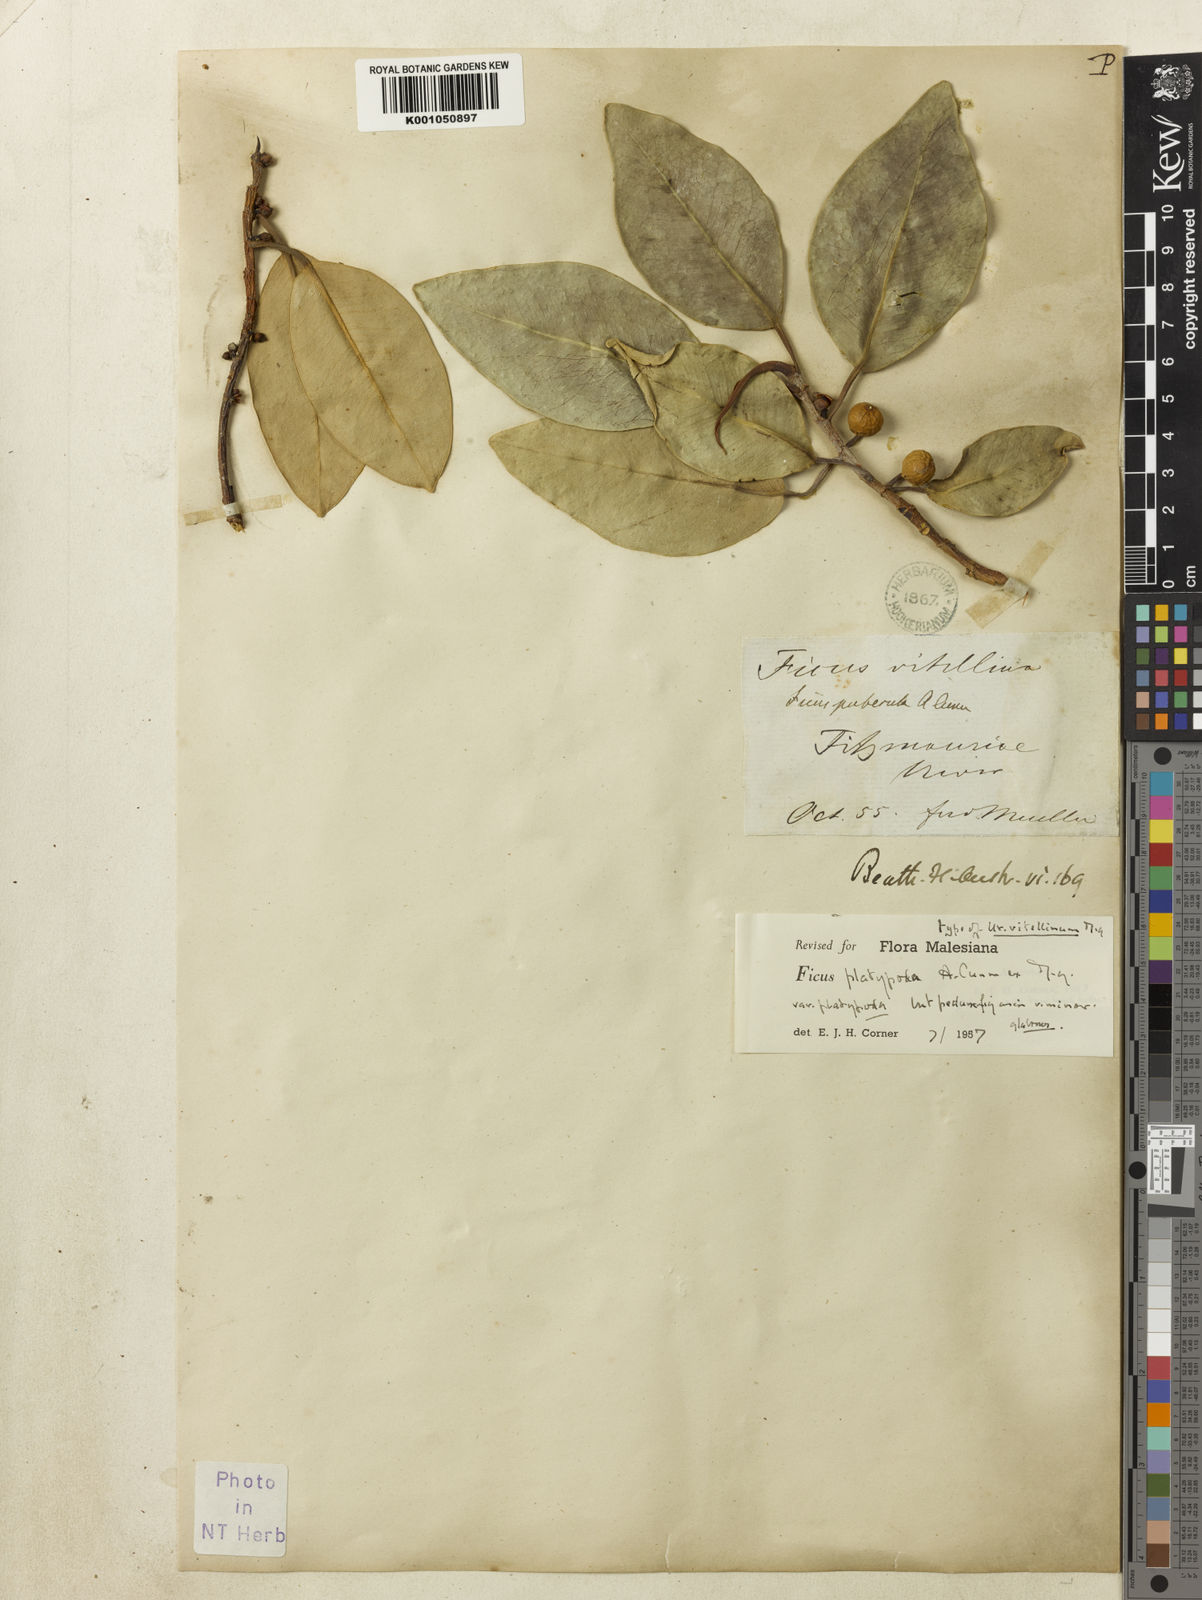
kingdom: Plantae
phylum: Tracheophyta
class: Magnoliopsida
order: Rosales
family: Moraceae
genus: Ficus
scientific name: Ficus platypoda
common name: Fig
